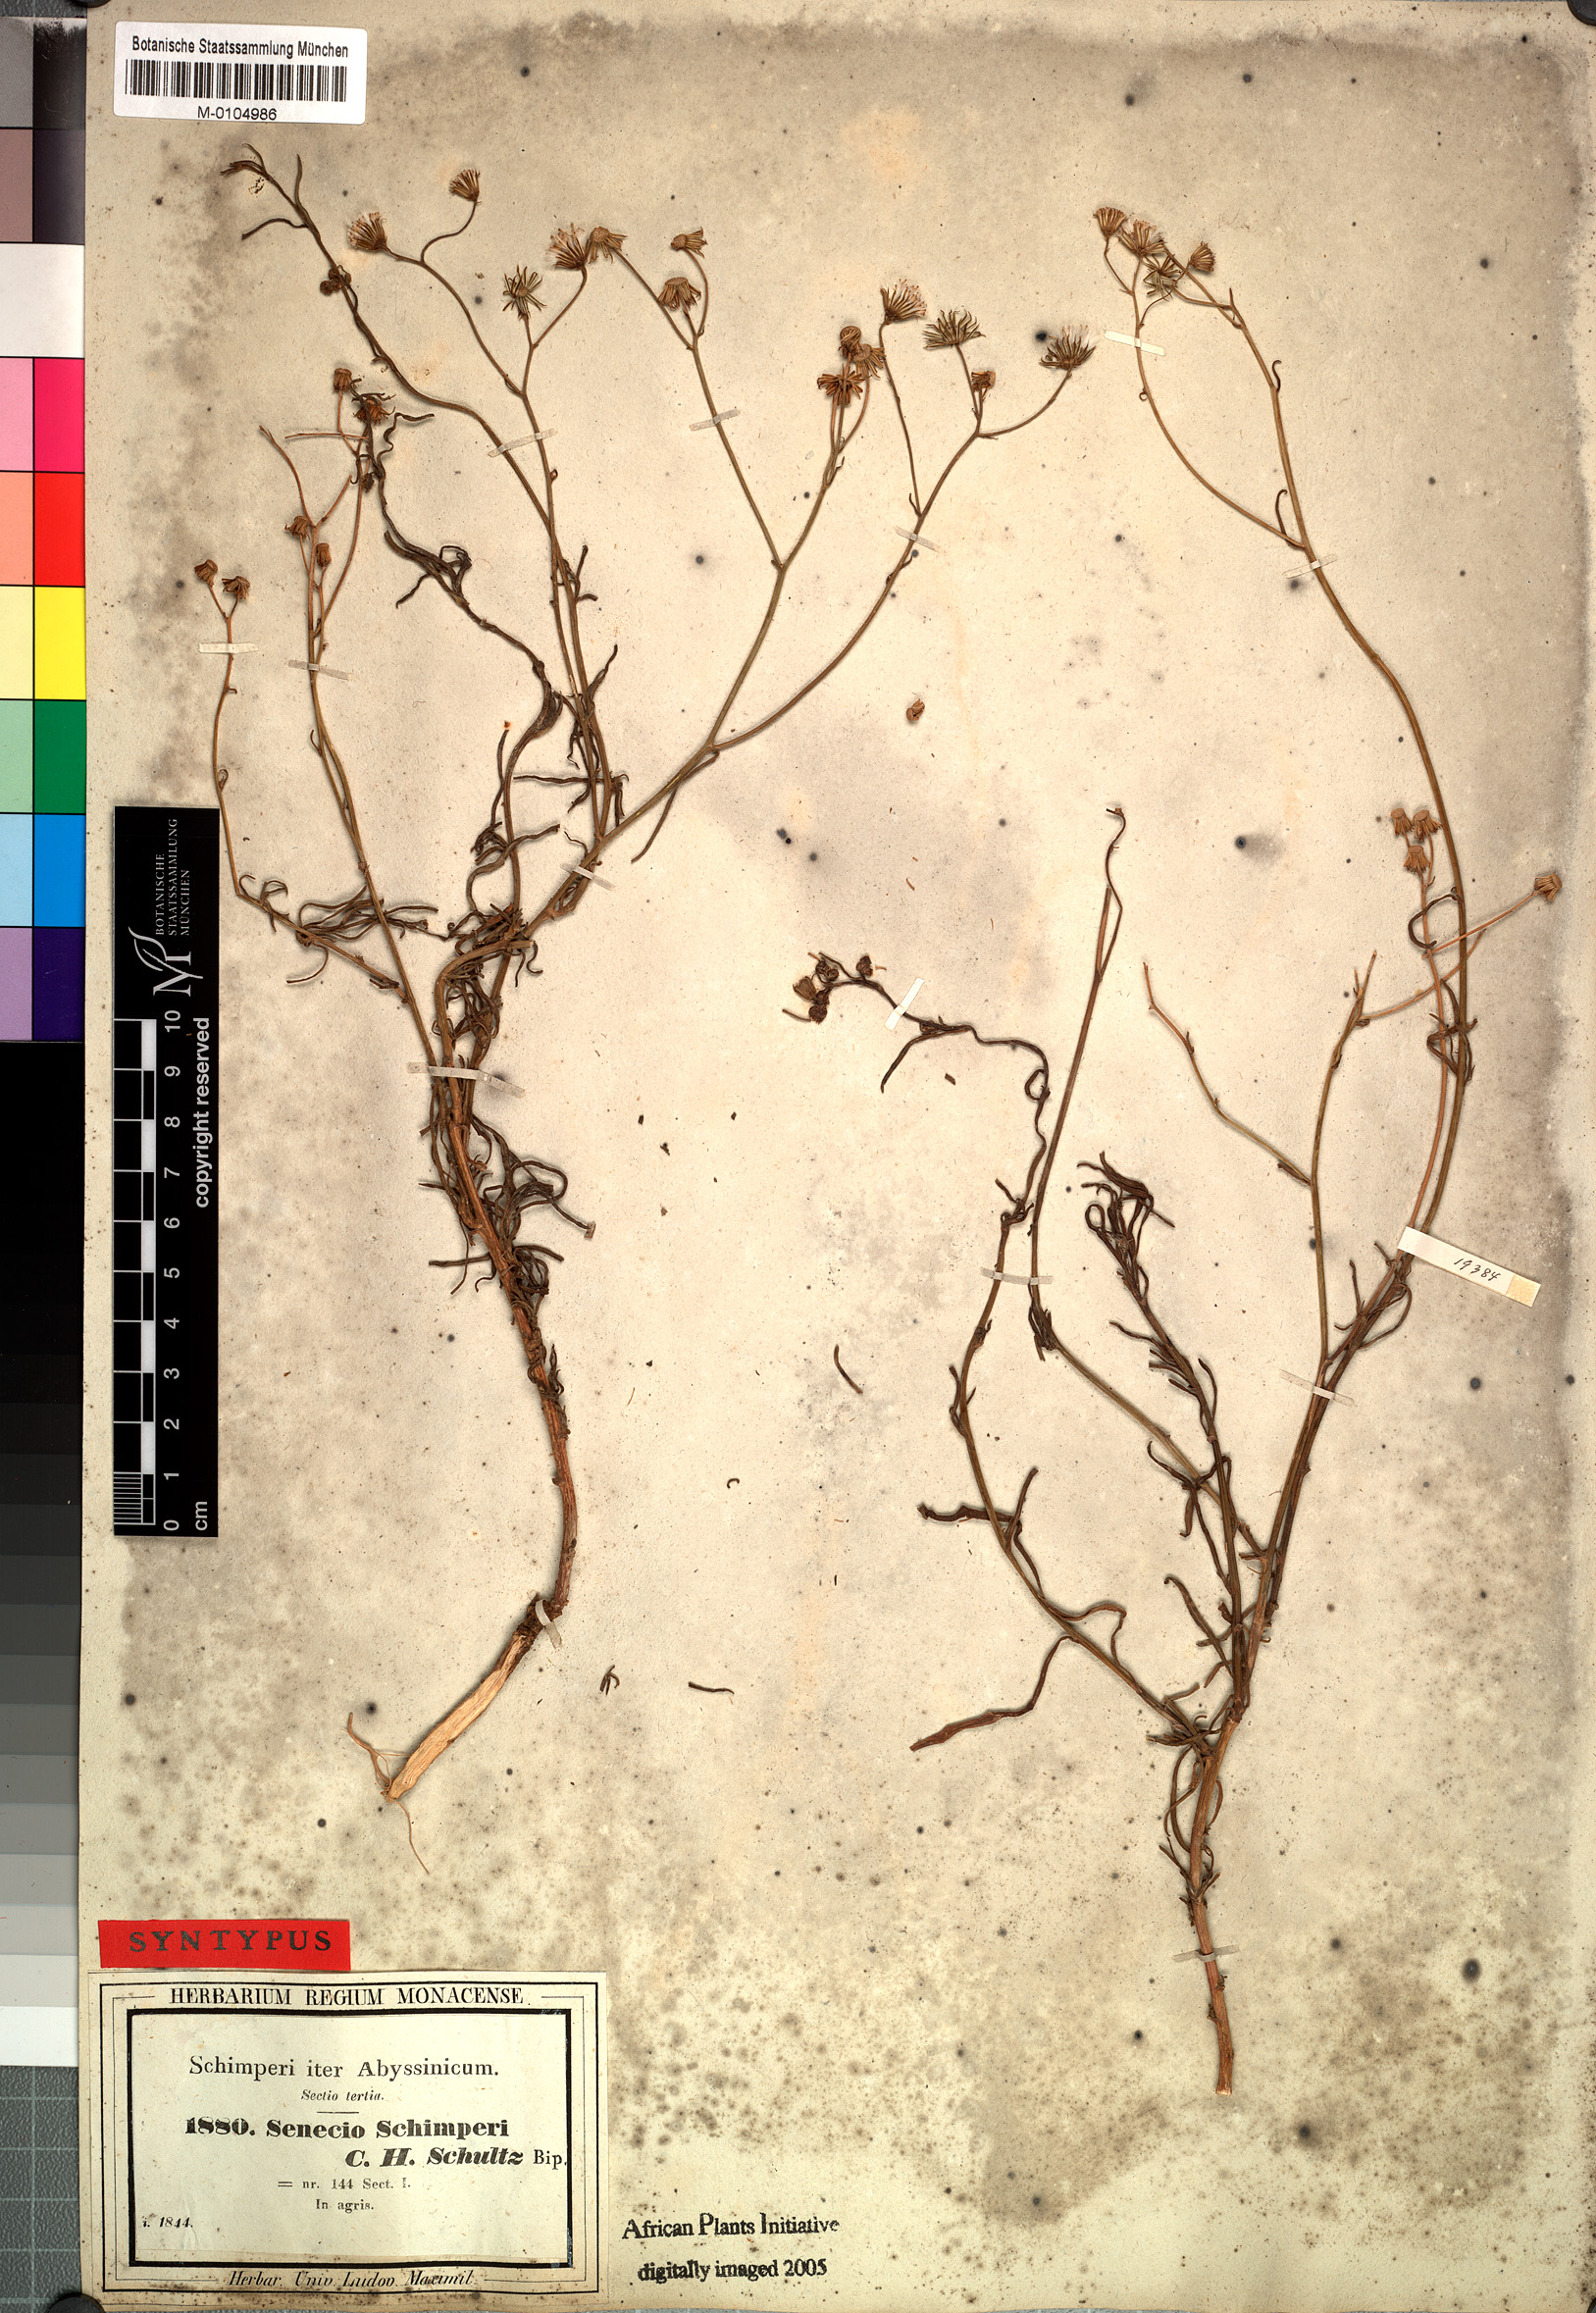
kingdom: Plantae
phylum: Tracheophyta
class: Magnoliopsida
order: Asterales
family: Asteraceae
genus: Senecio
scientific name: Senecio schimperi
